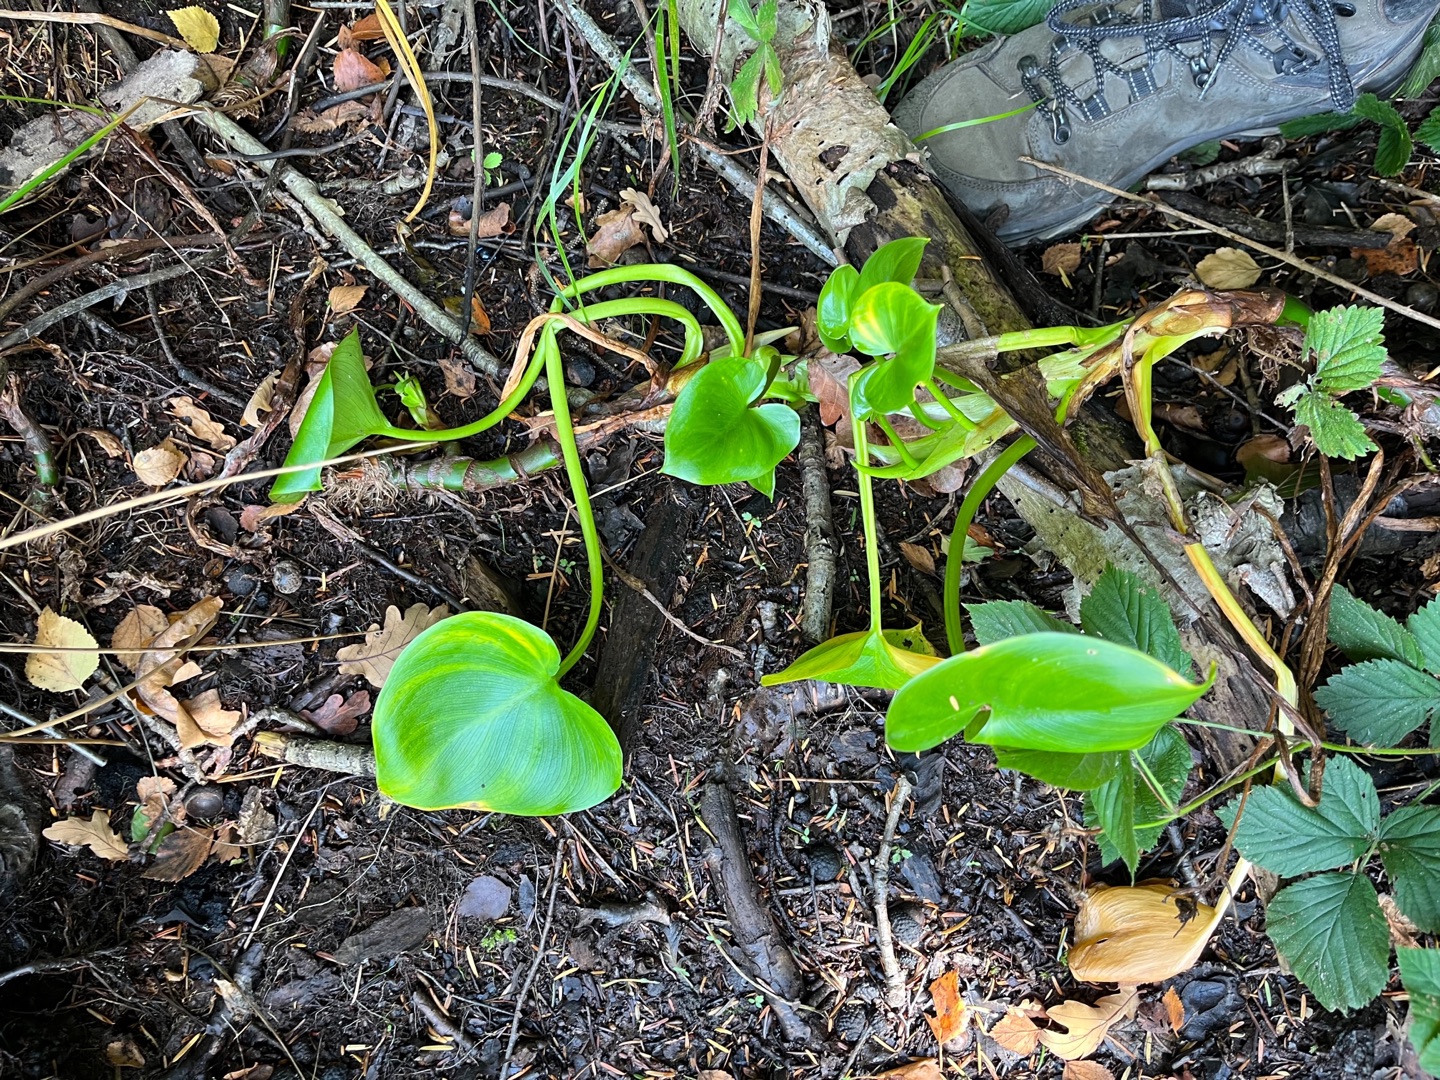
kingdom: Plantae
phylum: Tracheophyta
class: Liliopsida
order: Alismatales
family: Araceae
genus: Calla
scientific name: Calla palustris
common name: Kærmysse
